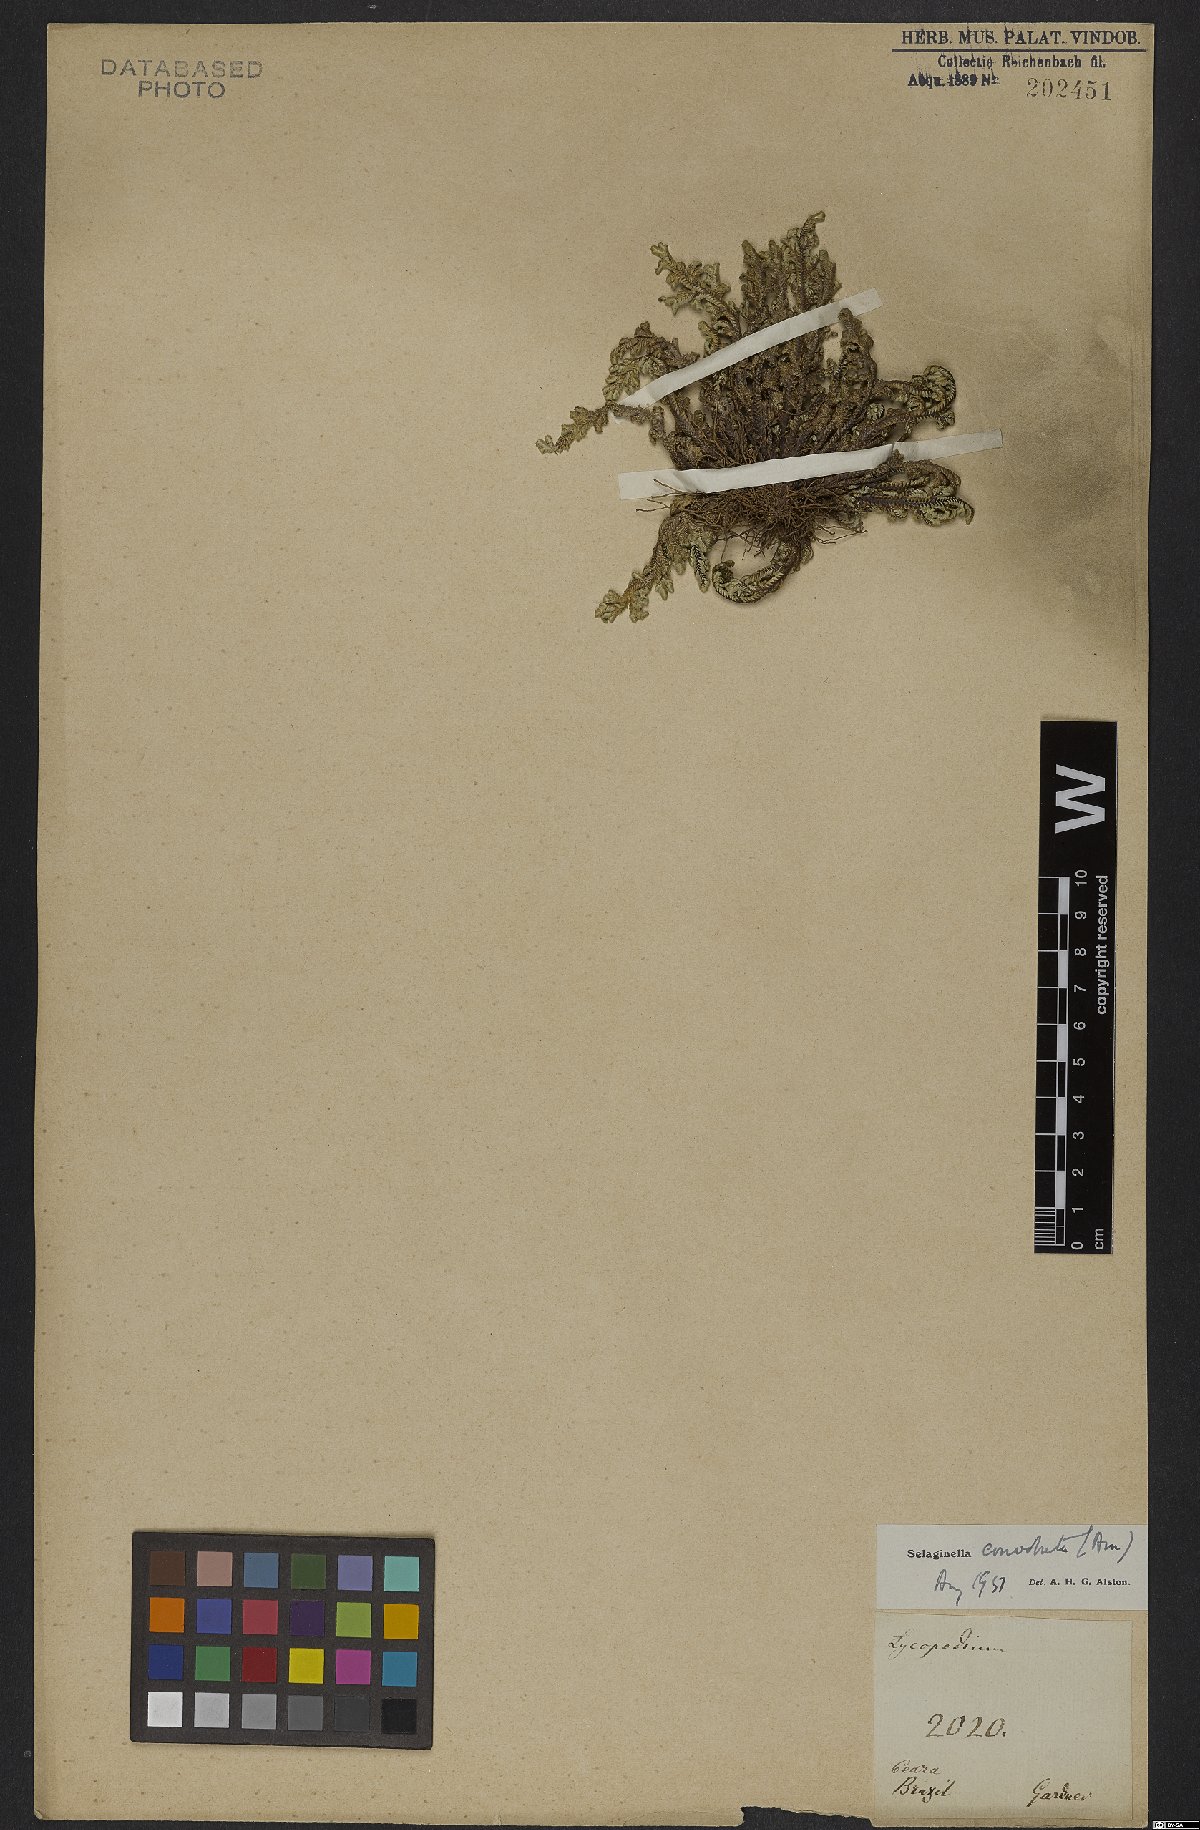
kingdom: Plantae
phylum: Tracheophyta
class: Lycopodiopsida
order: Selaginellales
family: Selaginellaceae
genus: Selaginella
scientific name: Selaginella convoluta
